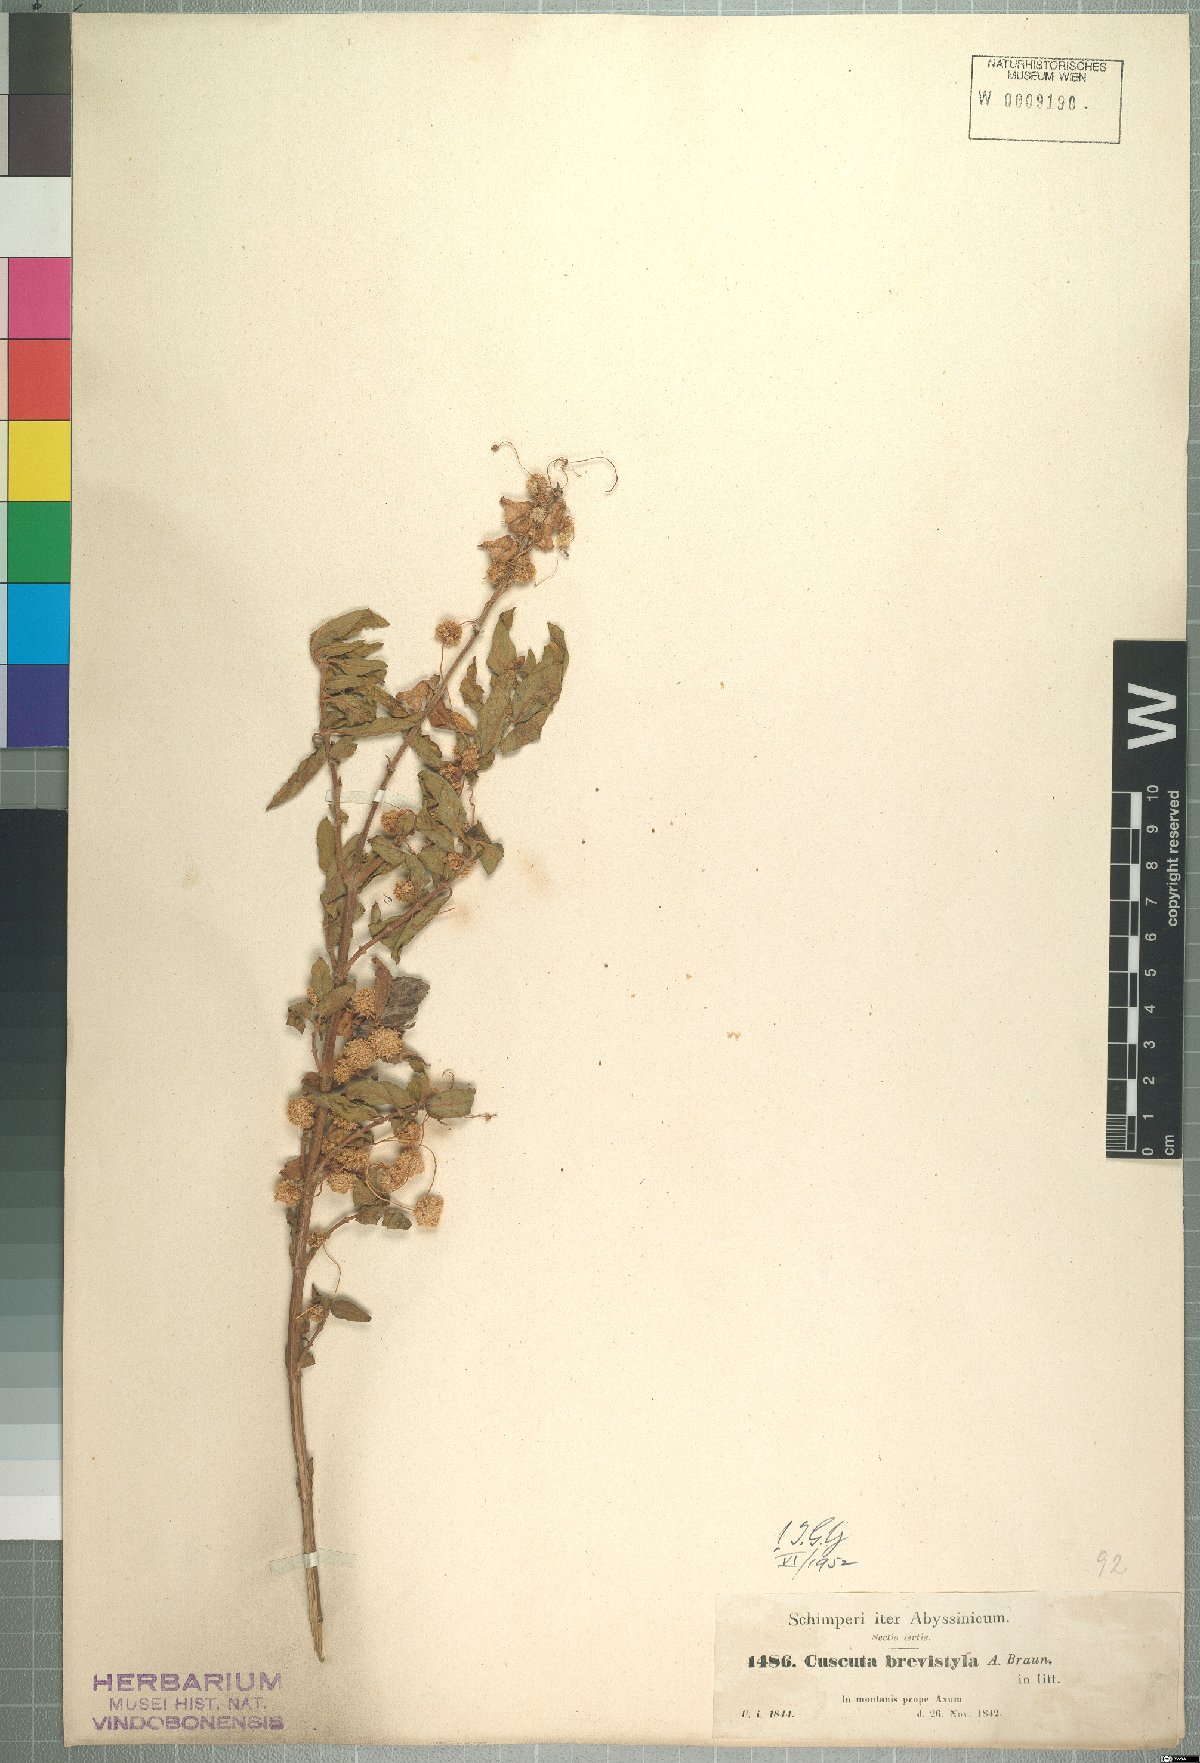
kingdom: Plantae
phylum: Tracheophyta
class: Magnoliopsida
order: Solanales
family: Convolvulaceae
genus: Cuscuta
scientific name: Cuscuta planiflora
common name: Small-seed alfalfa dodder
